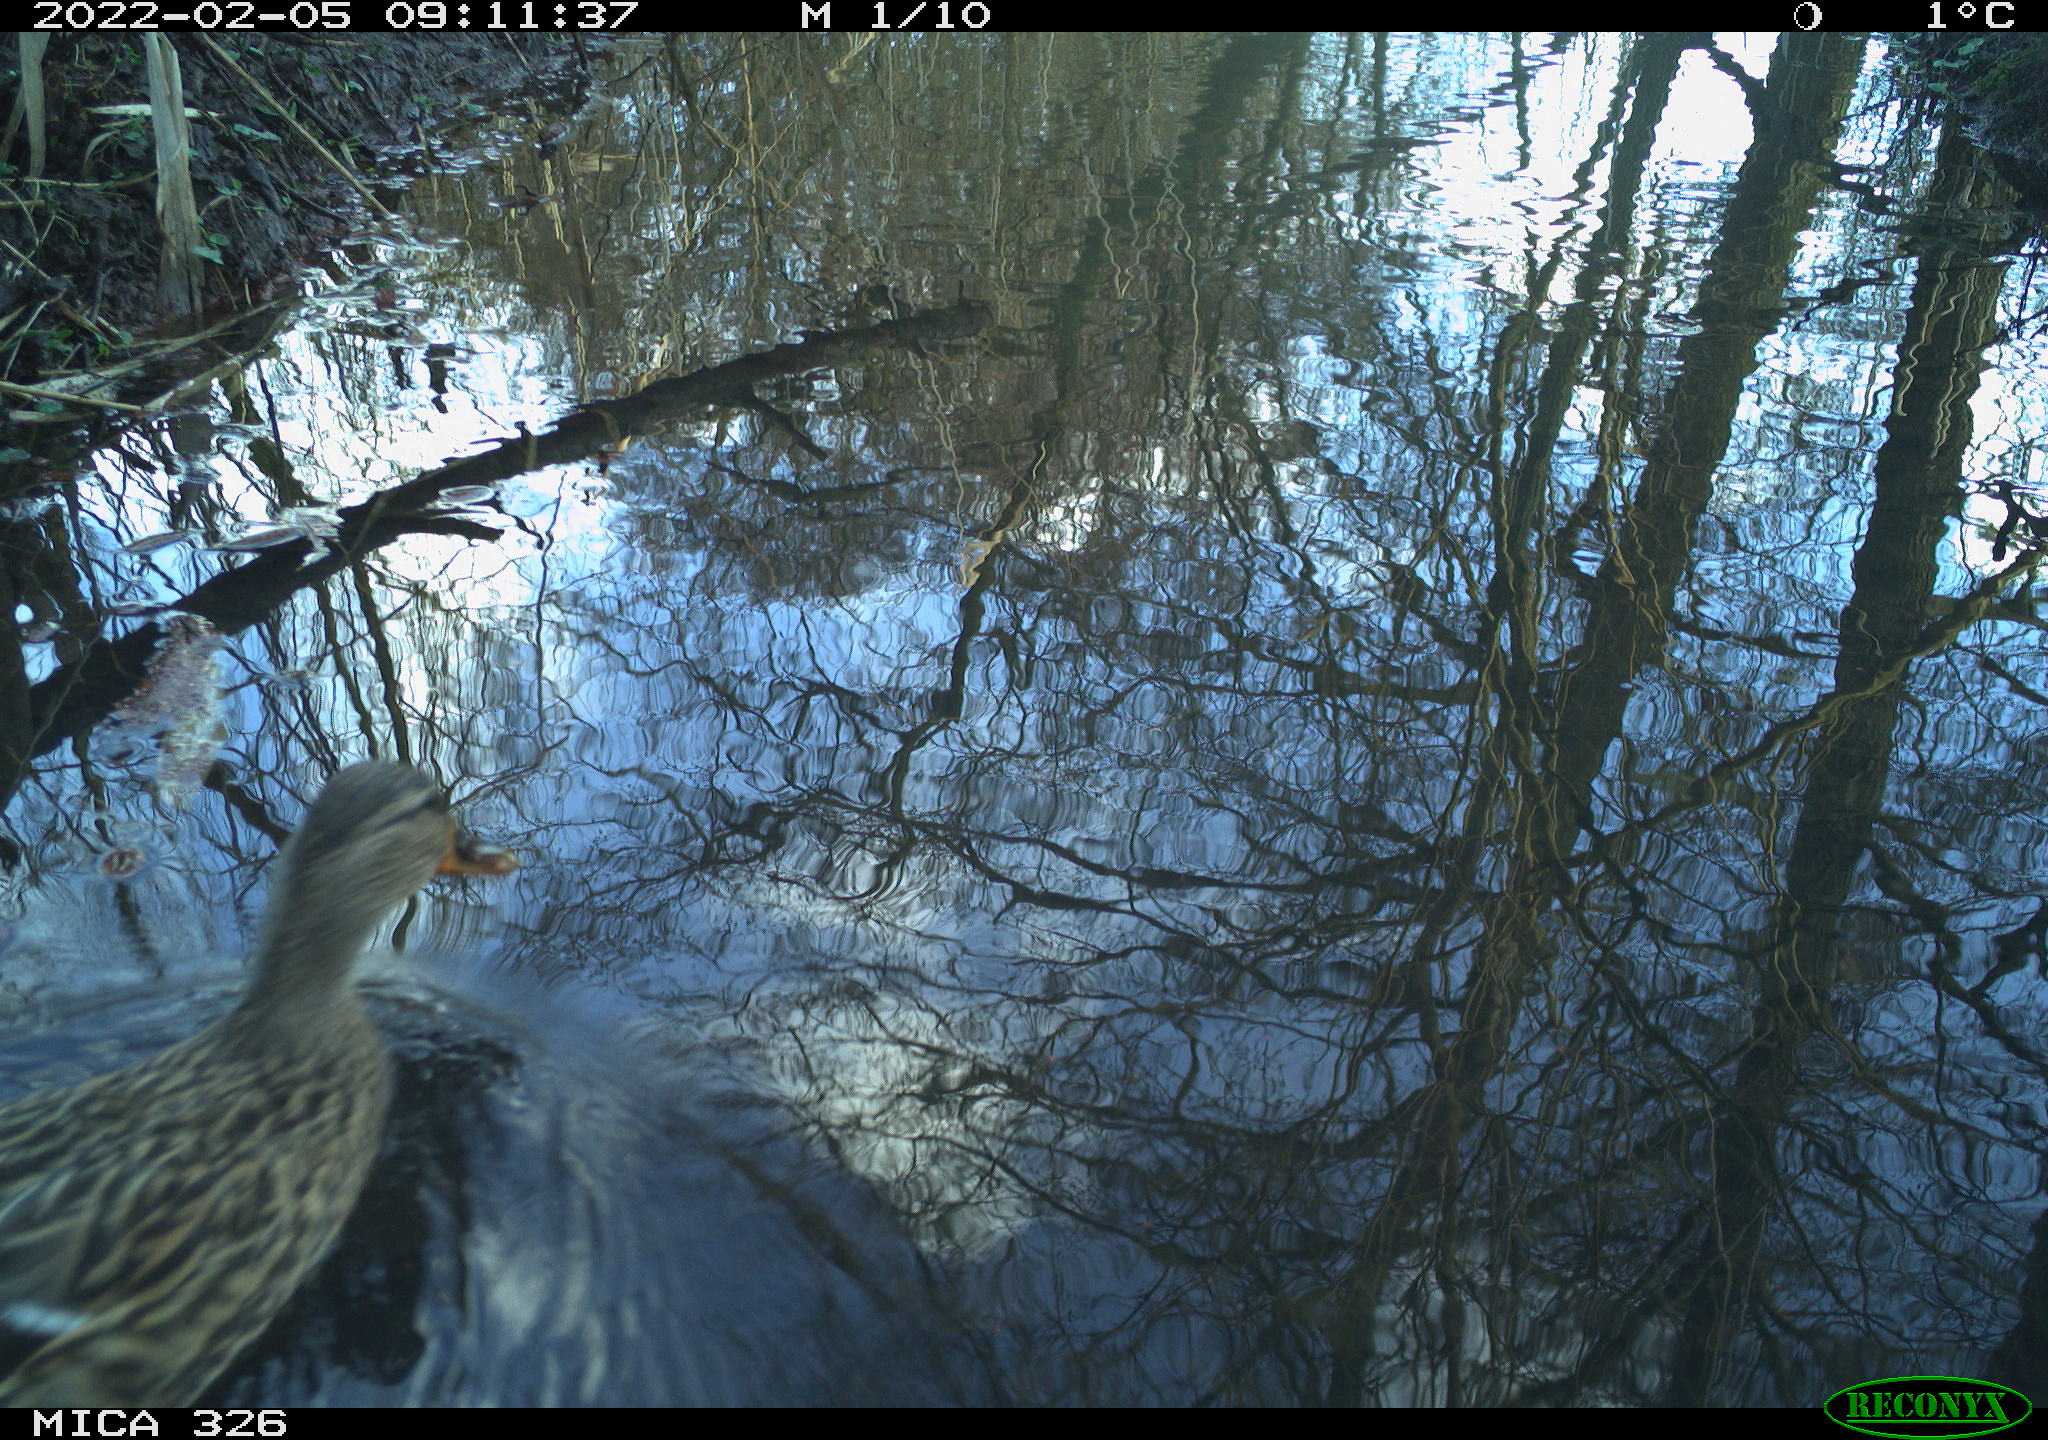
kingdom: Animalia
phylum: Chordata
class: Aves
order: Anseriformes
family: Anatidae
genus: Anas
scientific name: Anas platyrhynchos
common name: Mallard
